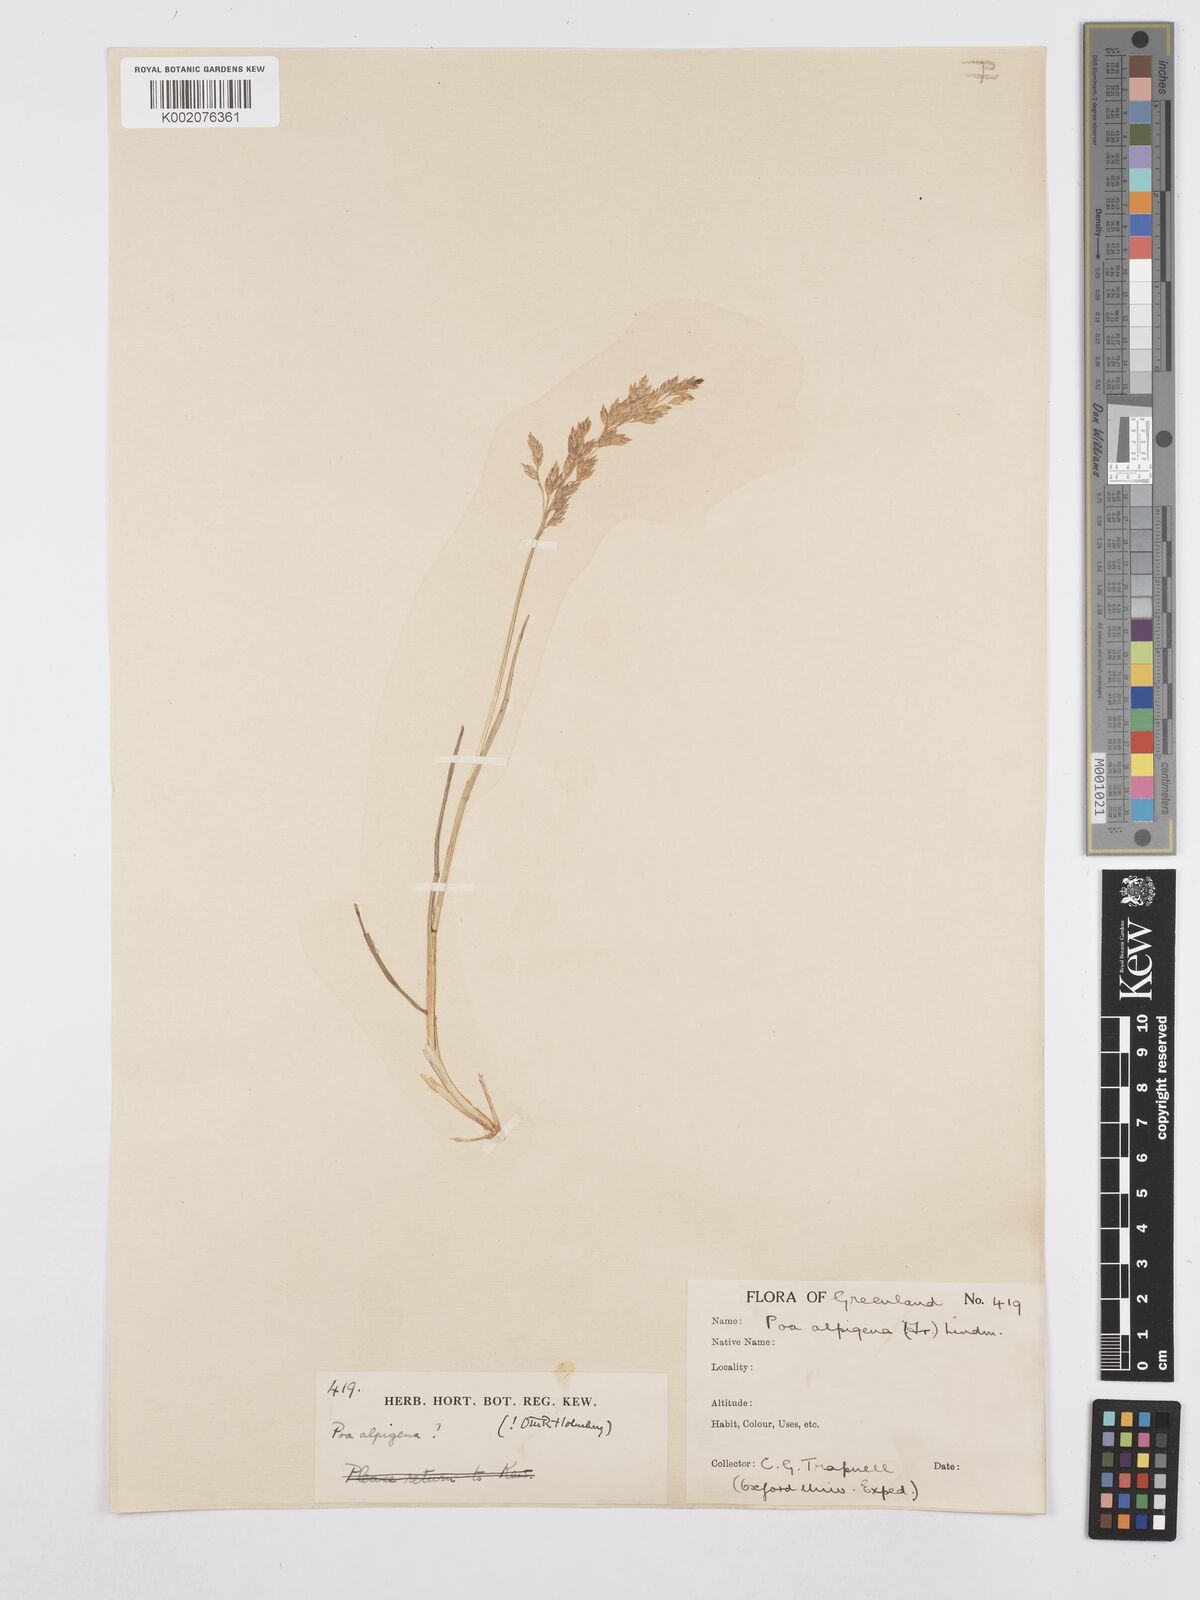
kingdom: Plantae
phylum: Tracheophyta
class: Liliopsida
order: Poales
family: Poaceae
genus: Poa
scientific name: Poa
